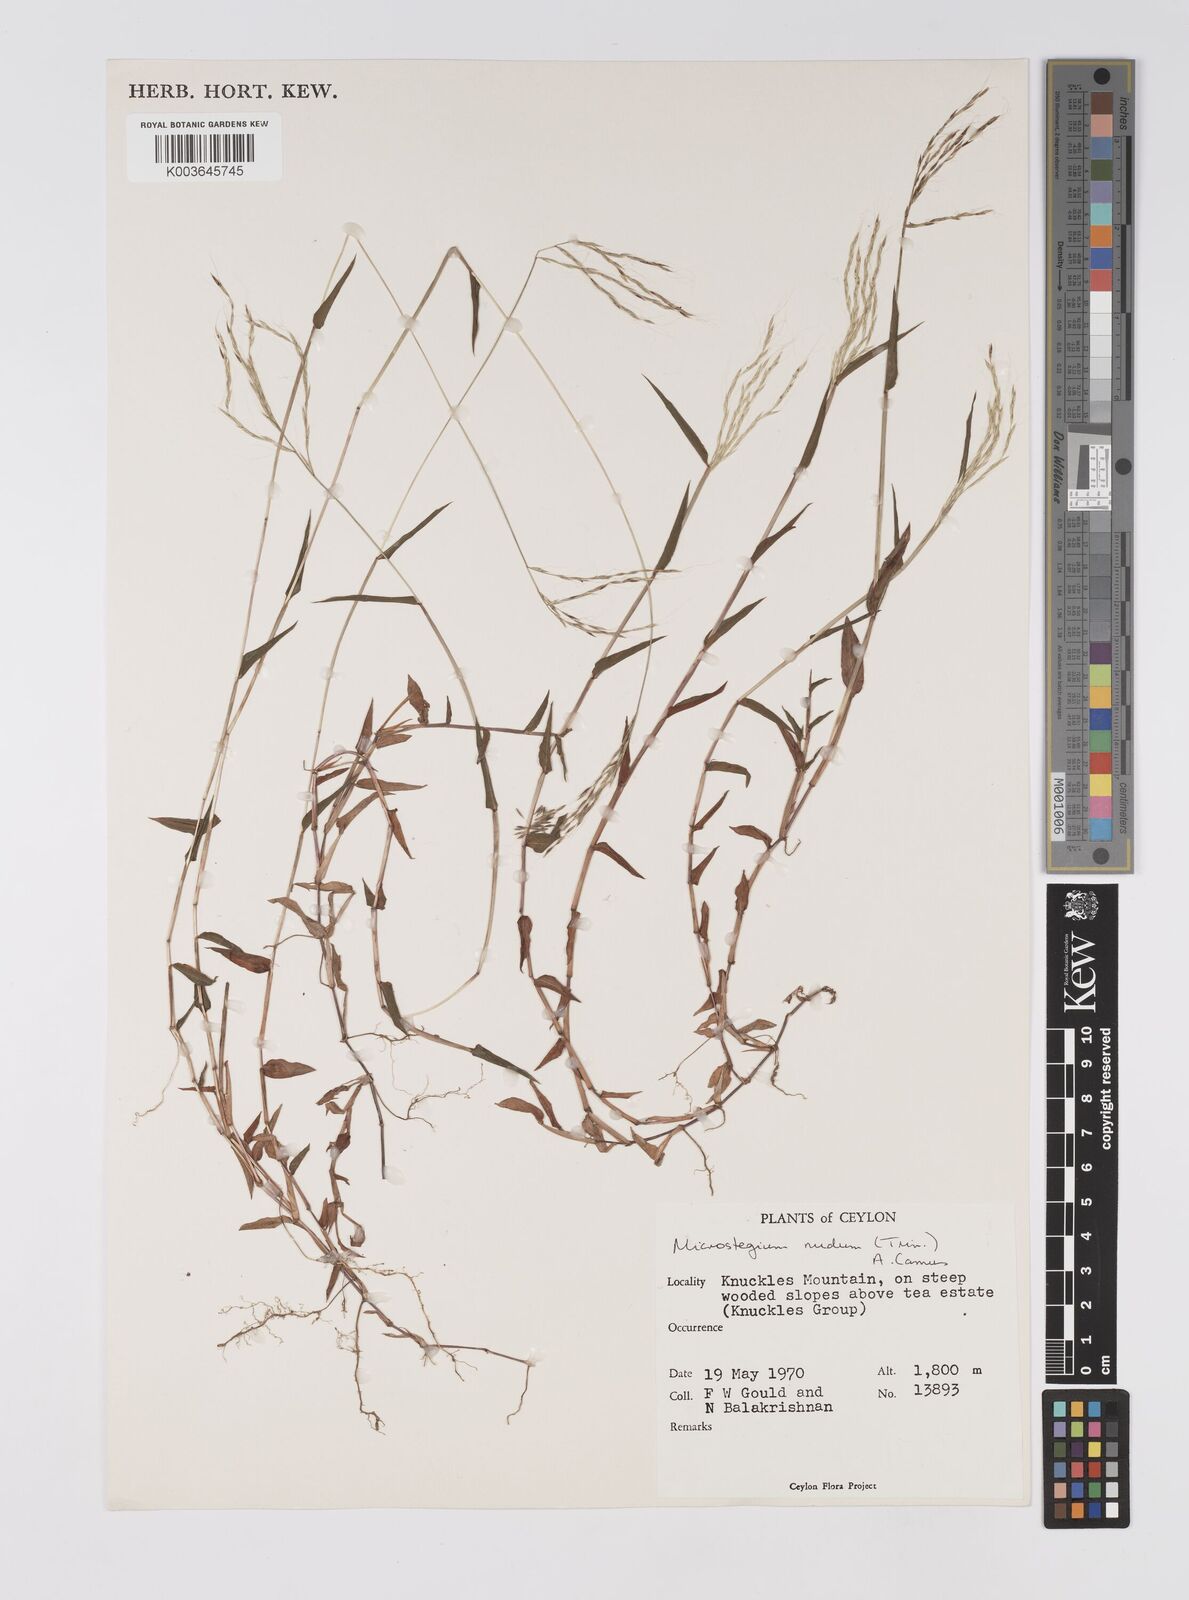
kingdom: Plantae
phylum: Tracheophyta
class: Liliopsida
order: Poales
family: Poaceae
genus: Microstegium
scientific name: Microstegium nudum
